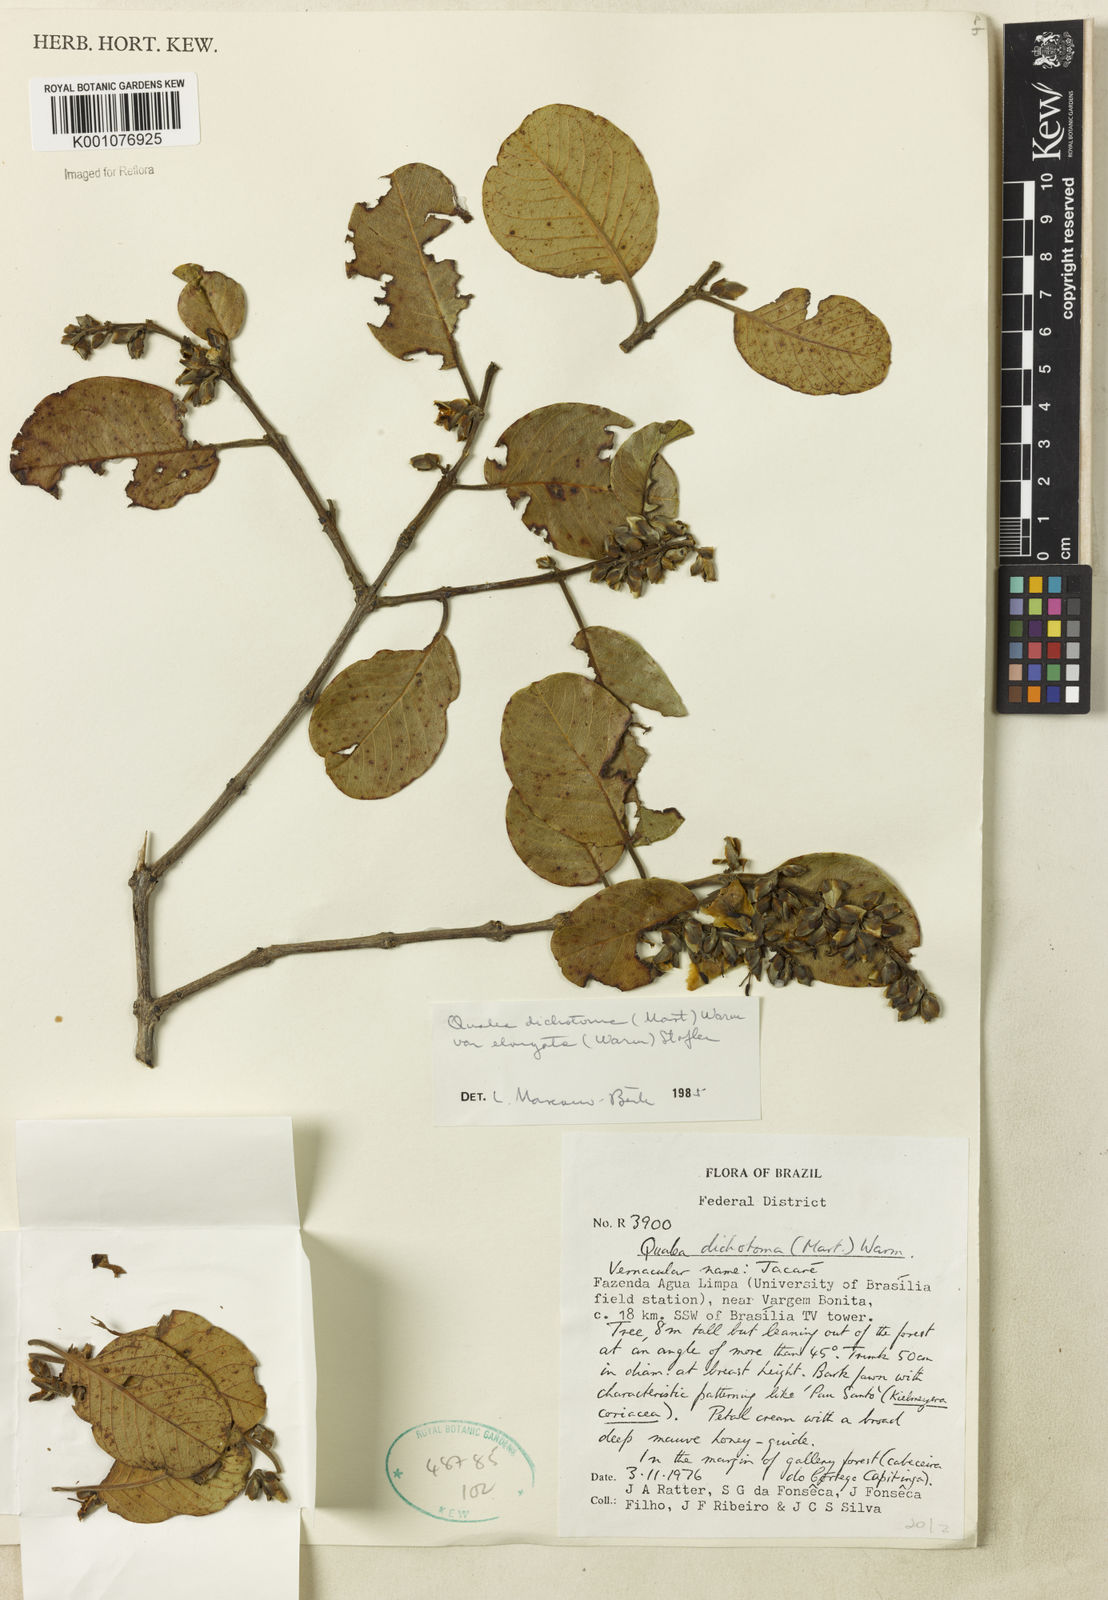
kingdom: Plantae
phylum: Tracheophyta
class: Magnoliopsida
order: Myrtales
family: Vochysiaceae
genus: Qualea
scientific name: Qualea cordata
